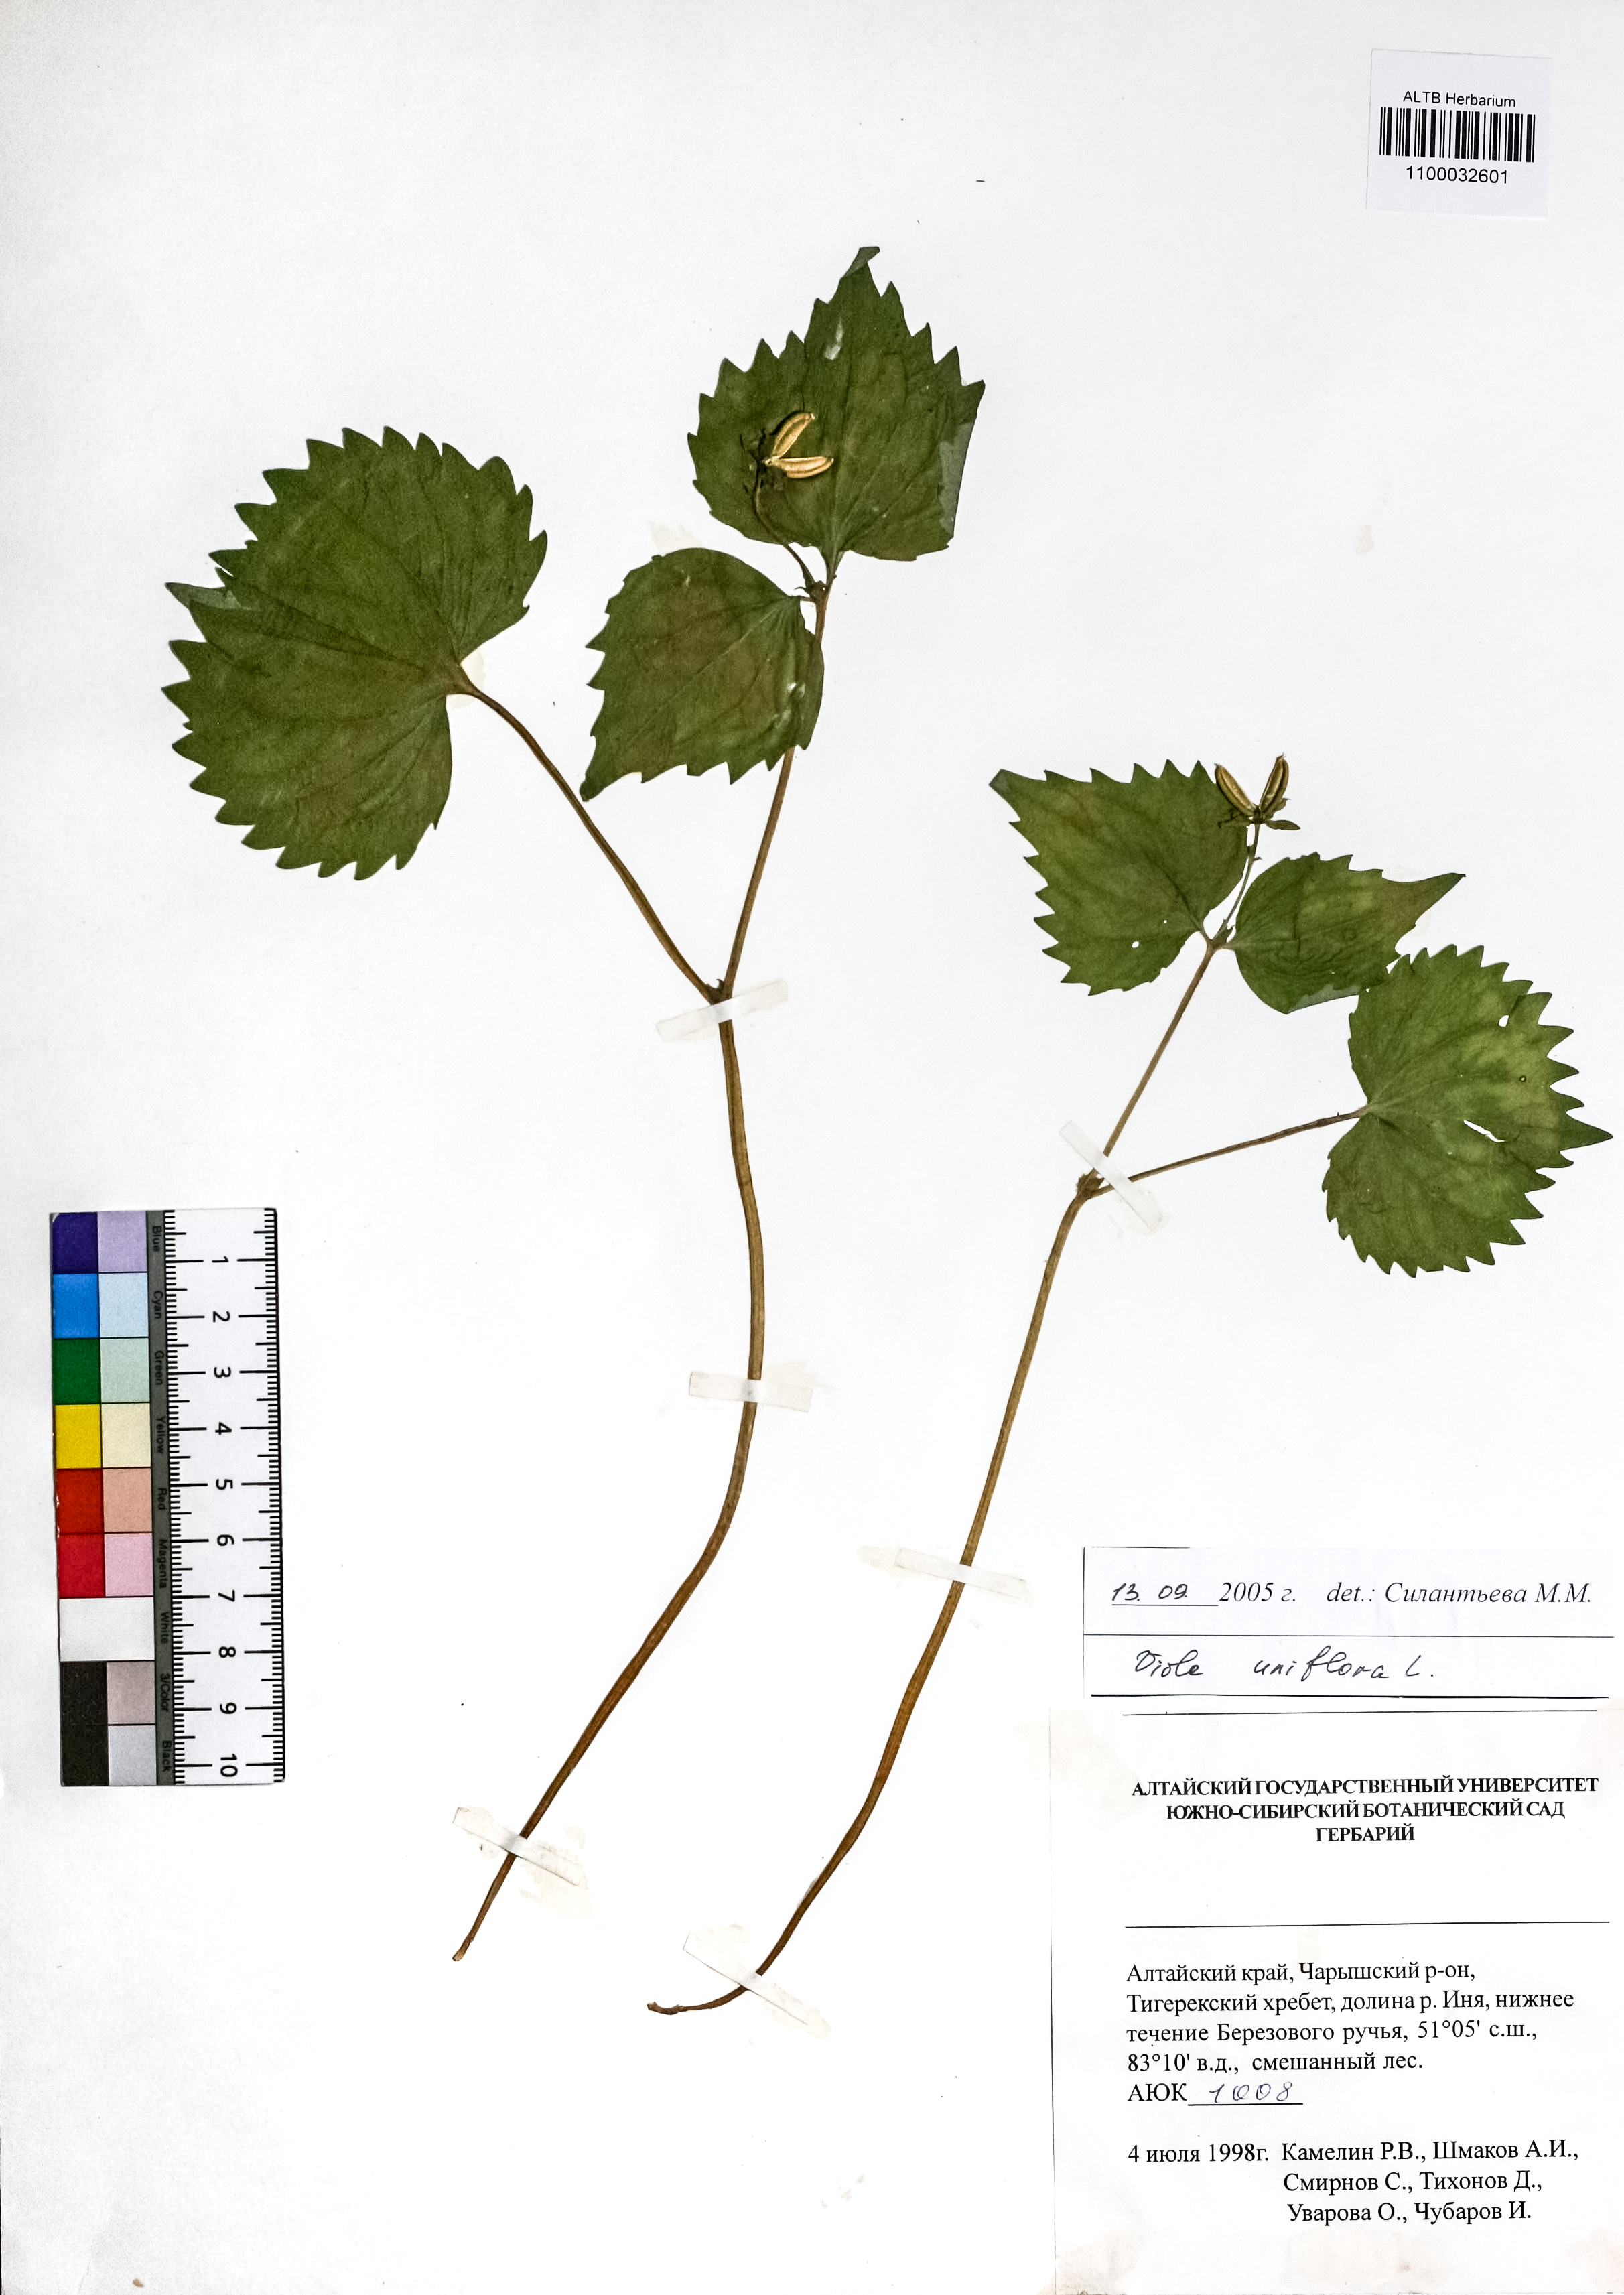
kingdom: Plantae
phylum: Tracheophyta
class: Magnoliopsida
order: Malpighiales
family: Violaceae
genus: Viola
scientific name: Viola uniflora
